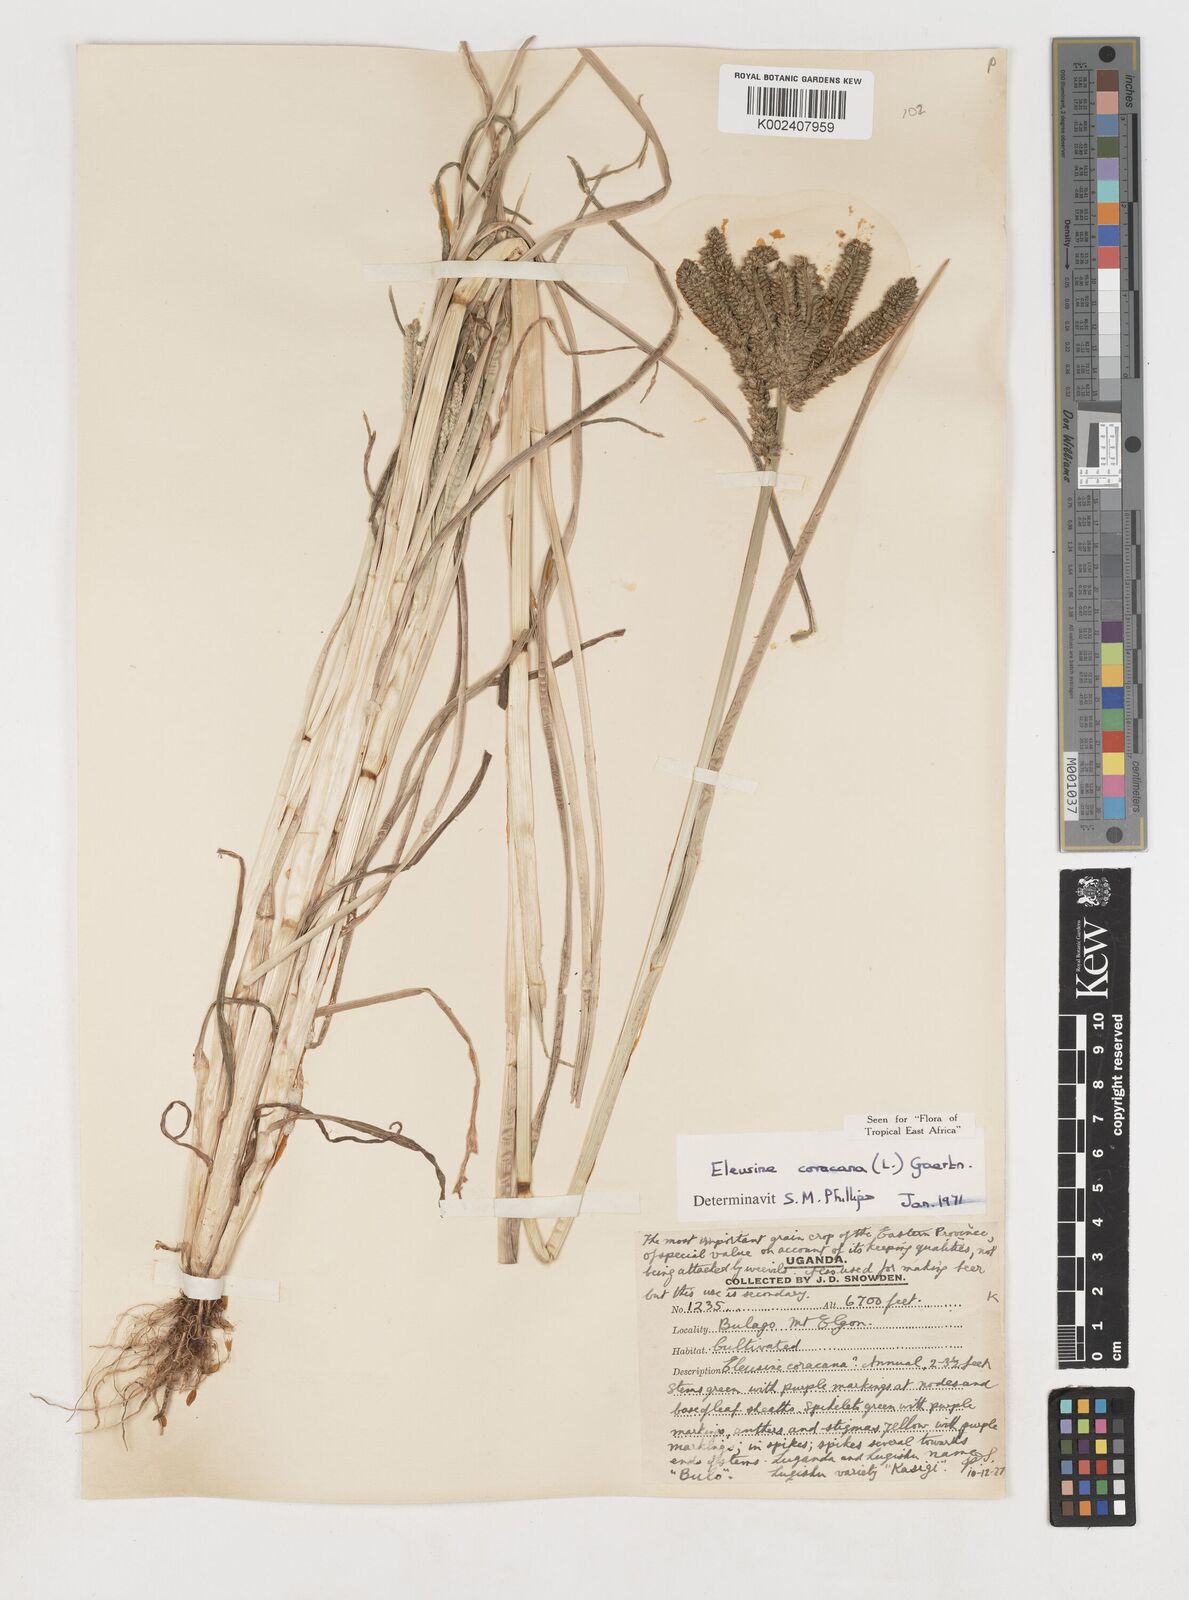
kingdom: Plantae
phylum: Tracheophyta
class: Liliopsida
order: Poales
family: Poaceae
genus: Eleusine
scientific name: Eleusine coracana
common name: Finger millet
